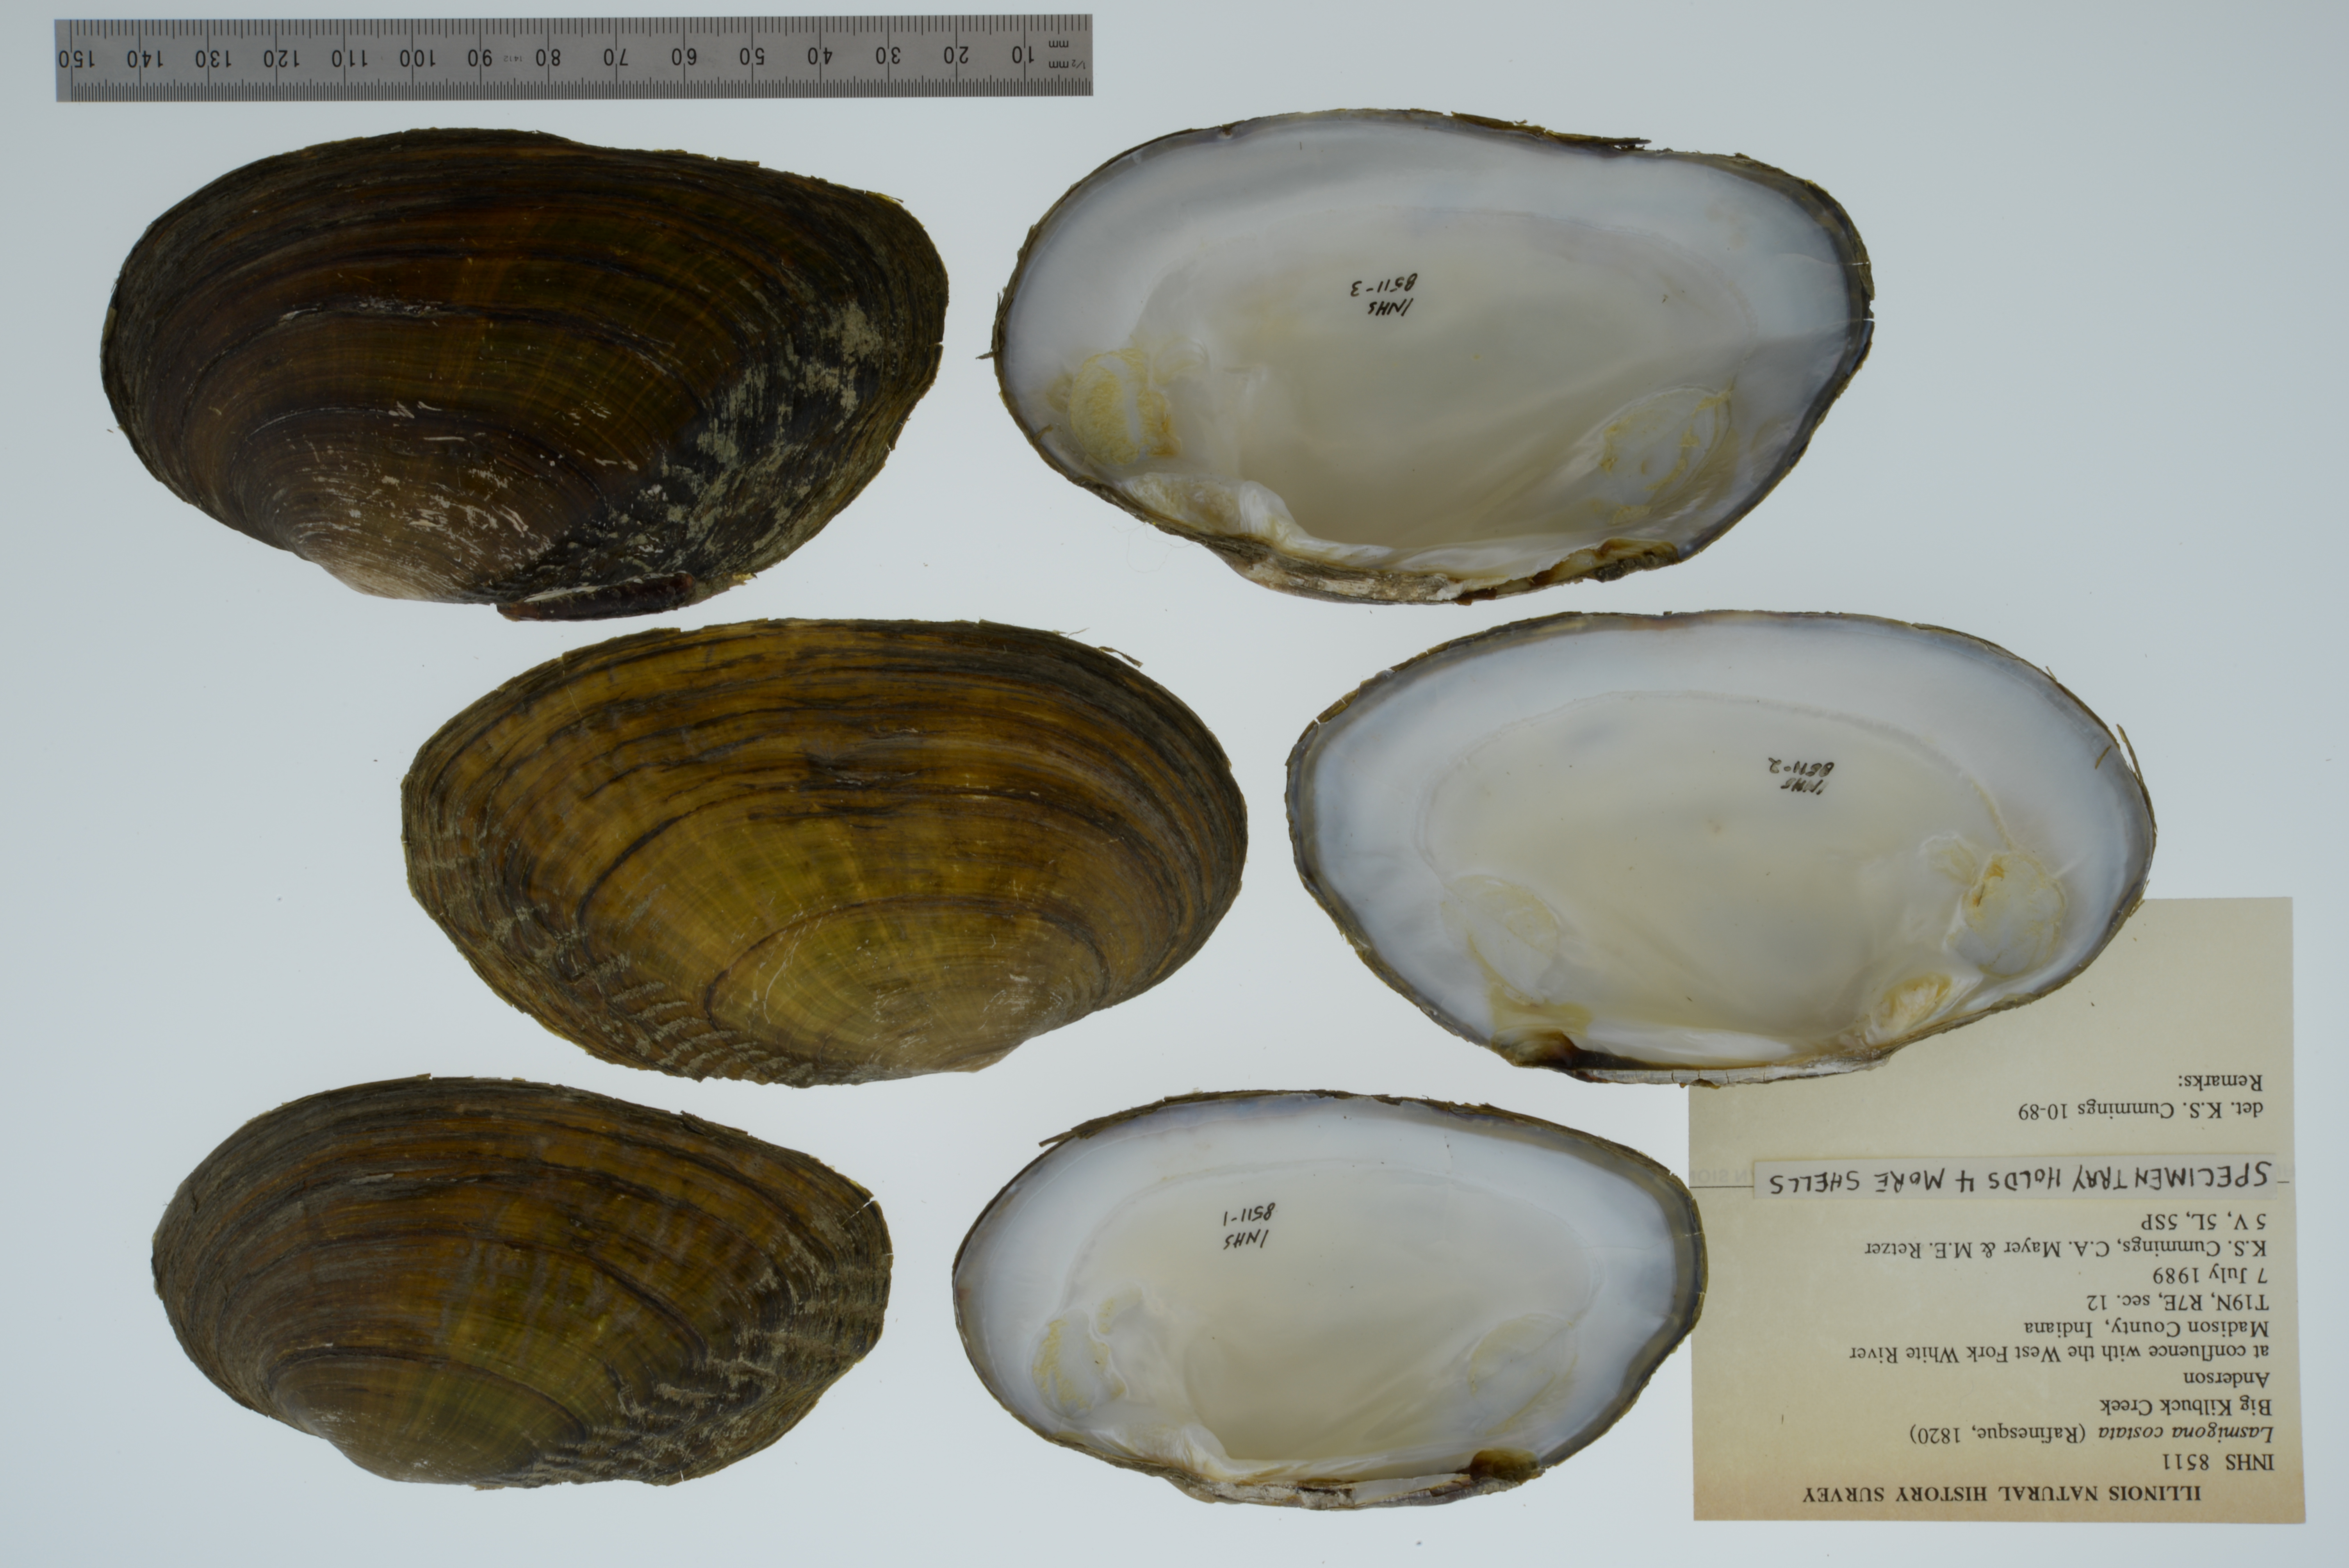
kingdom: Animalia
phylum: Mollusca
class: Bivalvia
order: Unionida
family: Unionidae
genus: Lasmigona
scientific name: Lasmigona costata
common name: Flutedshell
